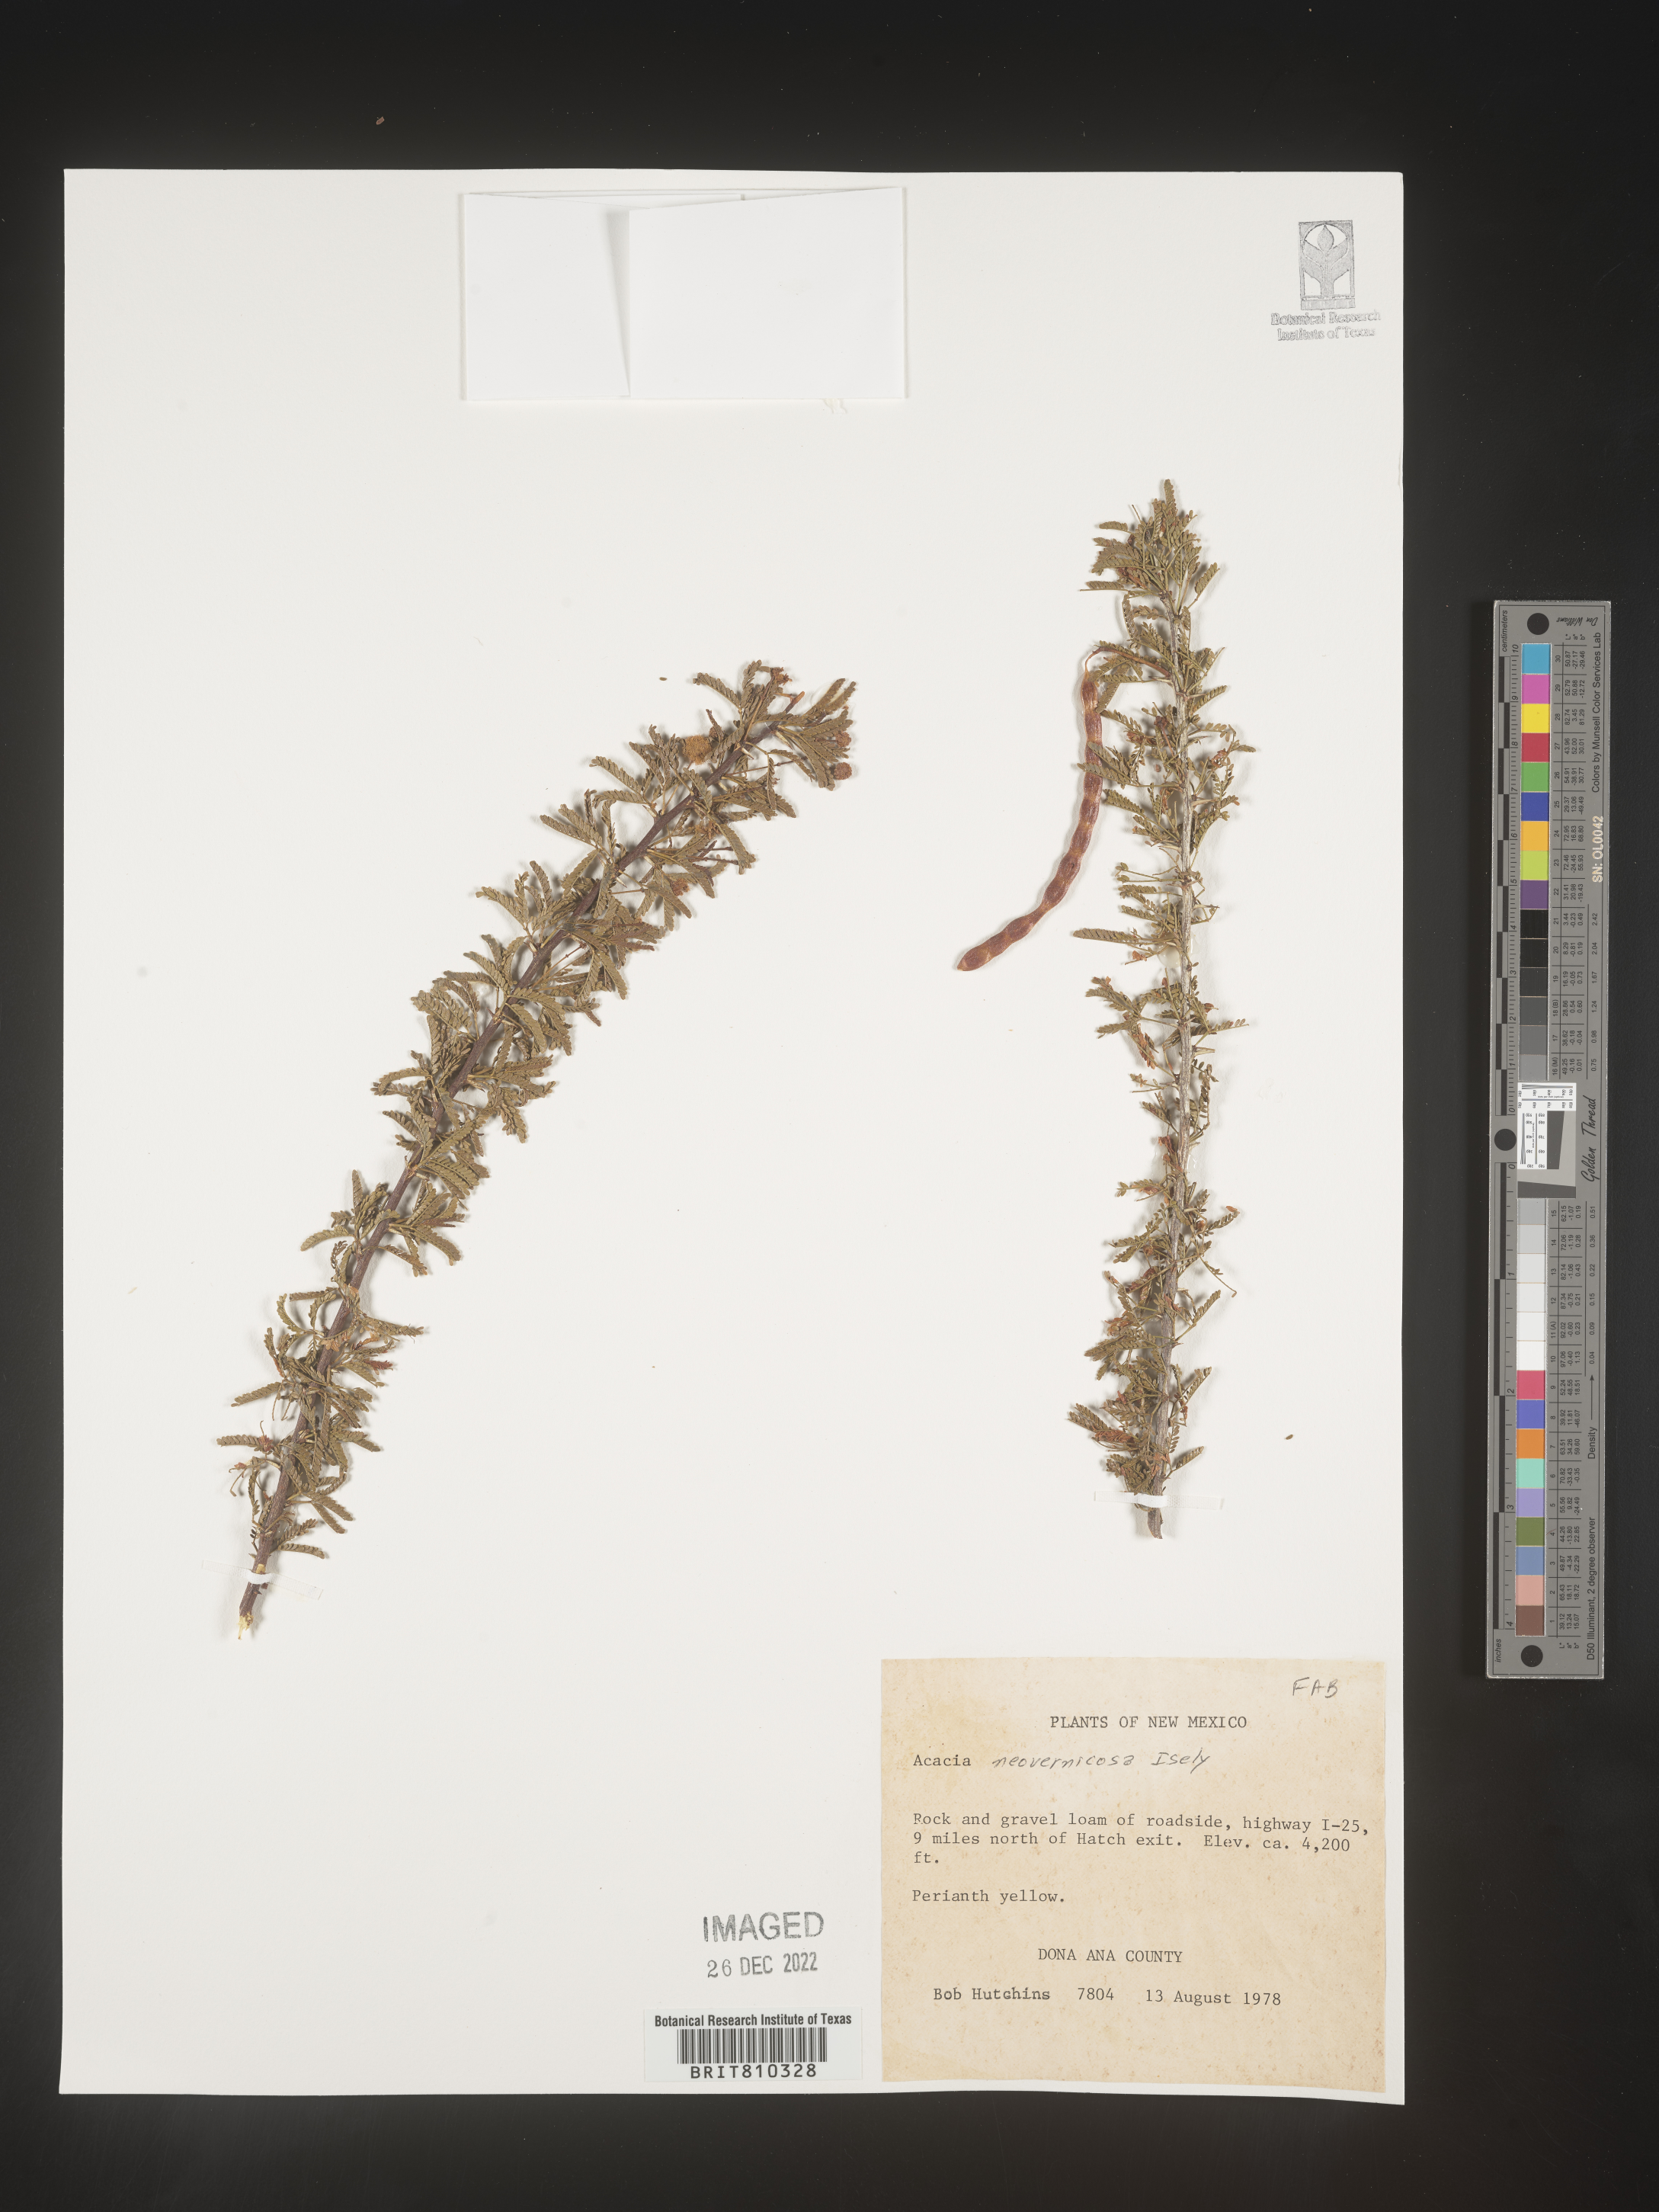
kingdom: Plantae
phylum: Tracheophyta
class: Magnoliopsida
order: Fabales
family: Fabaceae
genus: Acacia
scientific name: Acacia
